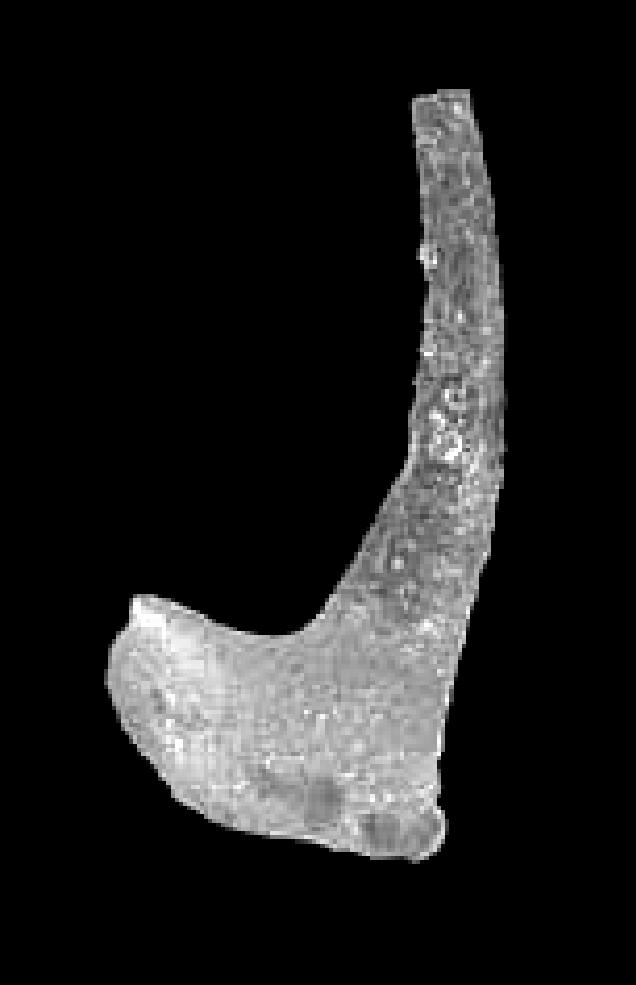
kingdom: Animalia
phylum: Chordata
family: Drepanoistodontidae
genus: Drepanoistodus
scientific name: Drepanoistodus Oistodus forceps
